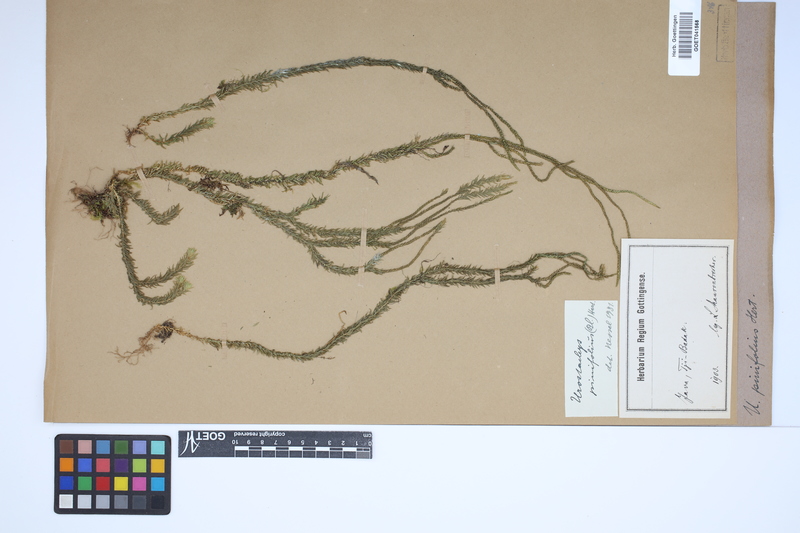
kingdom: Plantae
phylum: Tracheophyta
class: Lycopodiopsida
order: Lycopodiales
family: Lycopodiaceae
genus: Phlegmariurus
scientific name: Phlegmariurus gnidioides
